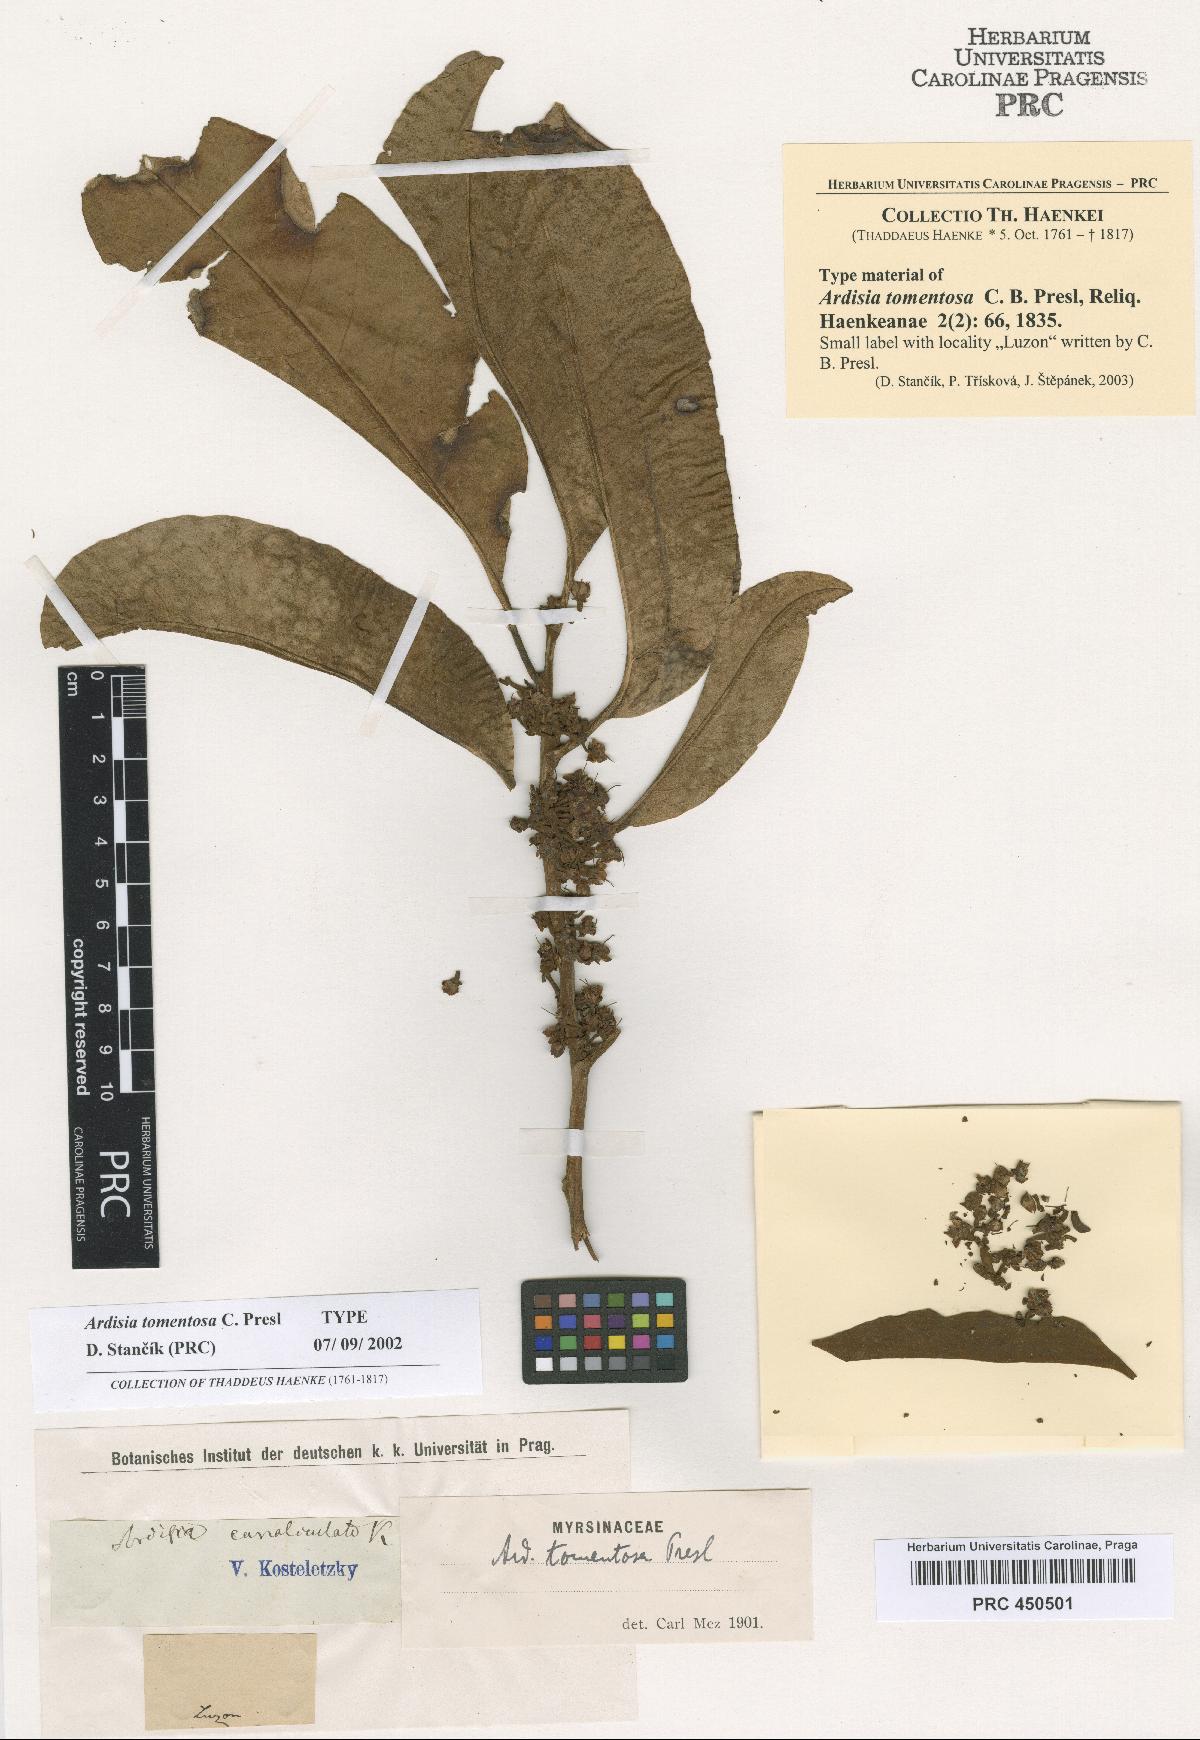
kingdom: Plantae
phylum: Tracheophyta
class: Magnoliopsida
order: Ericales
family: Primulaceae
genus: Ardisia
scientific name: Ardisia tomentosa
